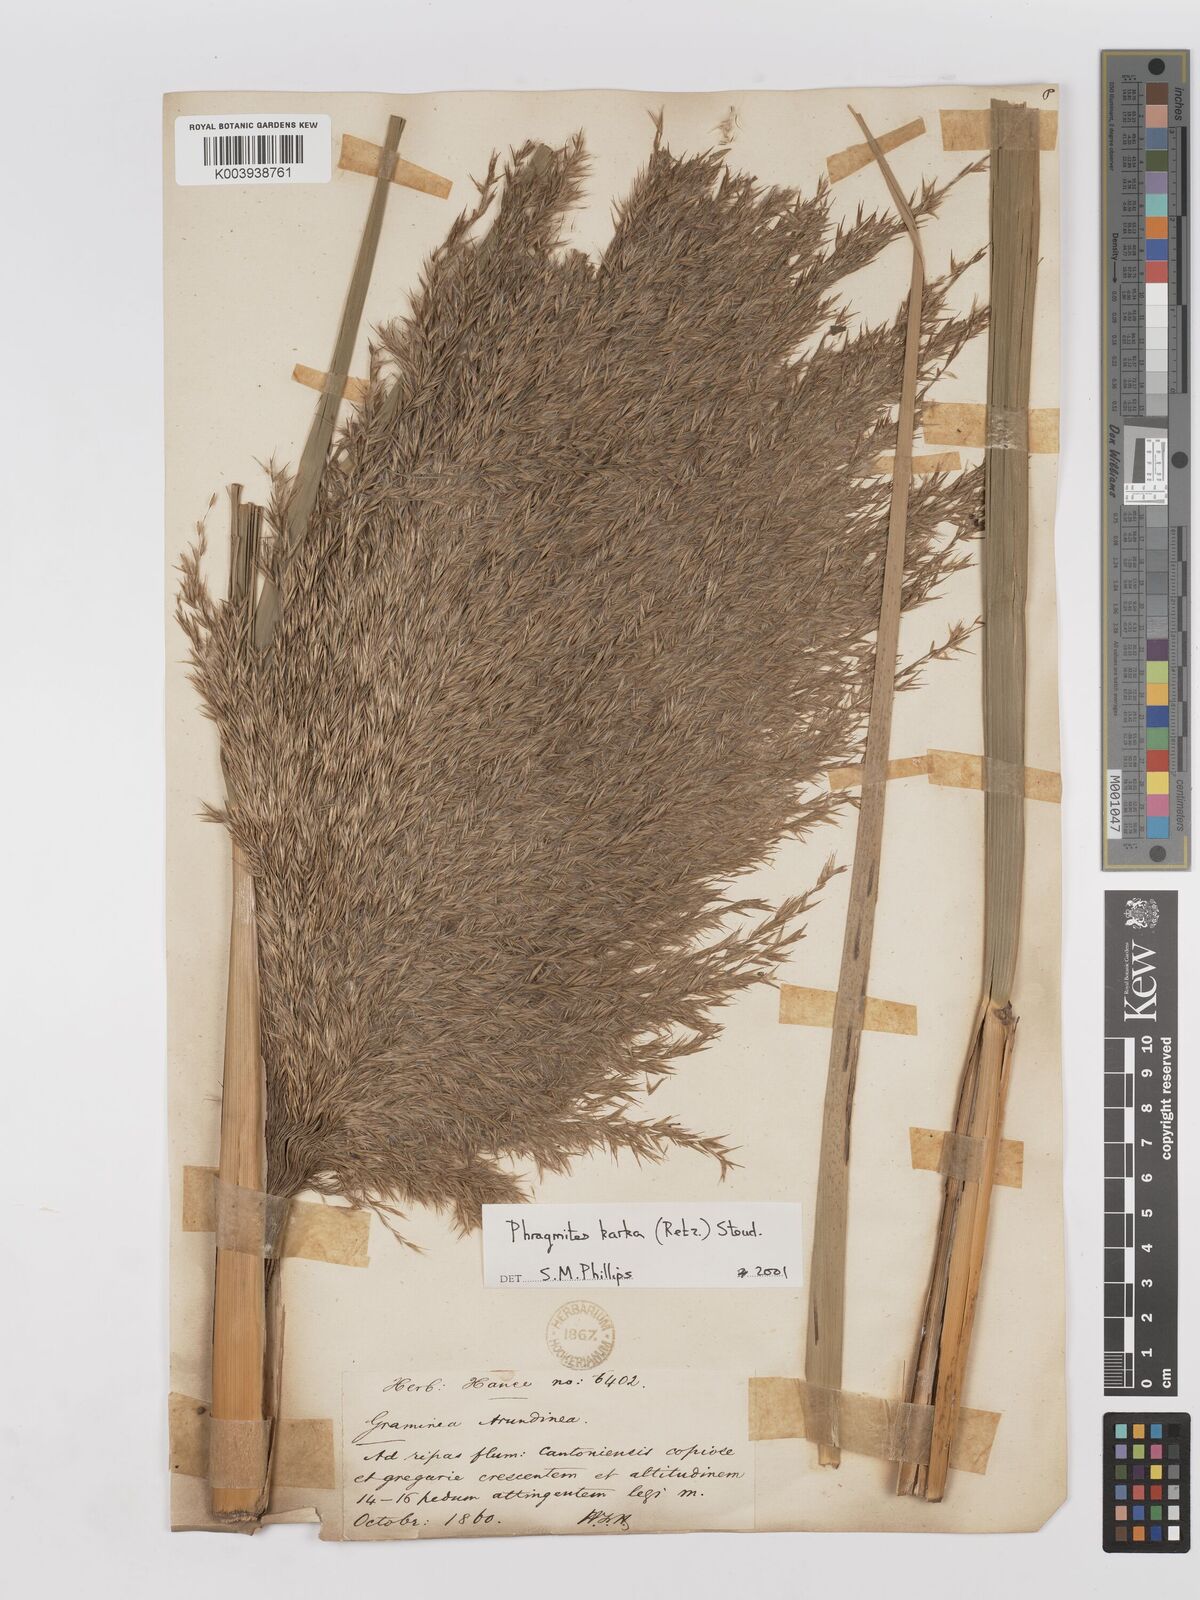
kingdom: Plantae
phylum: Tracheophyta
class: Liliopsida
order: Poales
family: Poaceae
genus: Phragmites
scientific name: Phragmites karka
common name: Tropical reed
